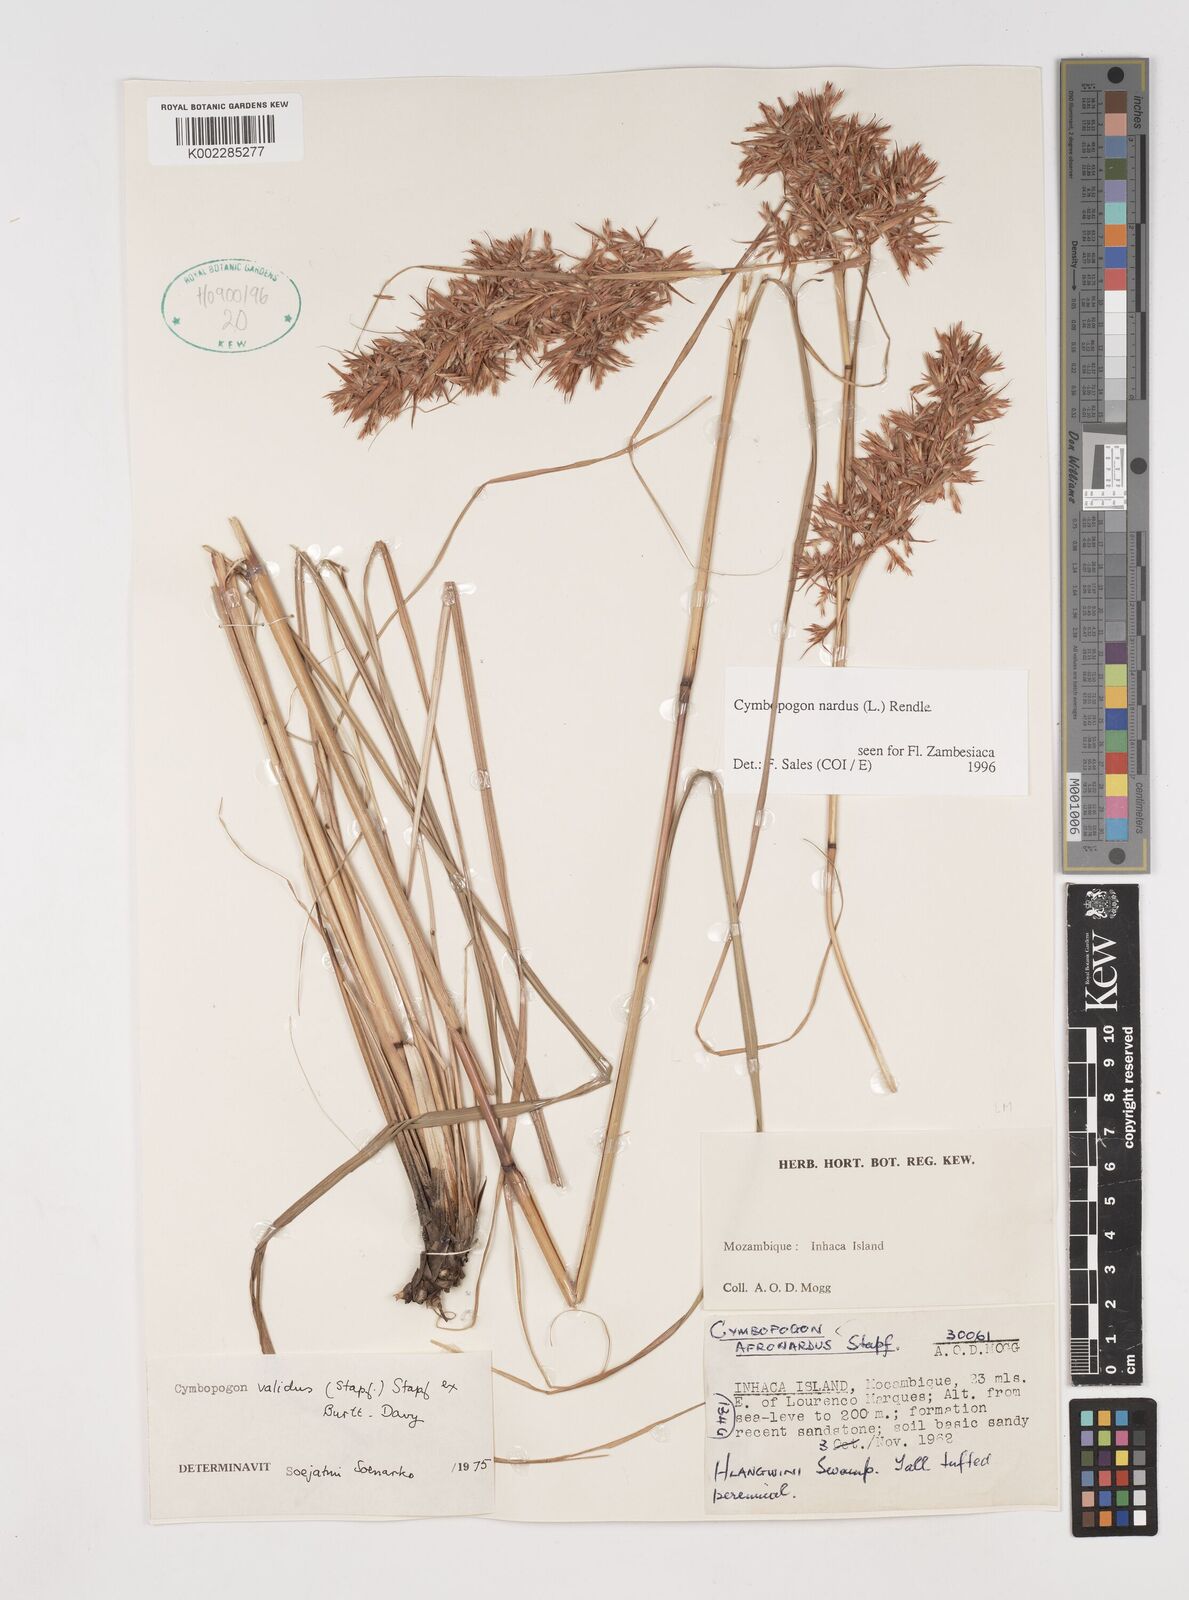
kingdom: Plantae
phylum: Tracheophyta
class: Liliopsida
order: Poales
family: Poaceae
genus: Cymbopogon
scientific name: Cymbopogon nardus
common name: Giant turpentine grass
